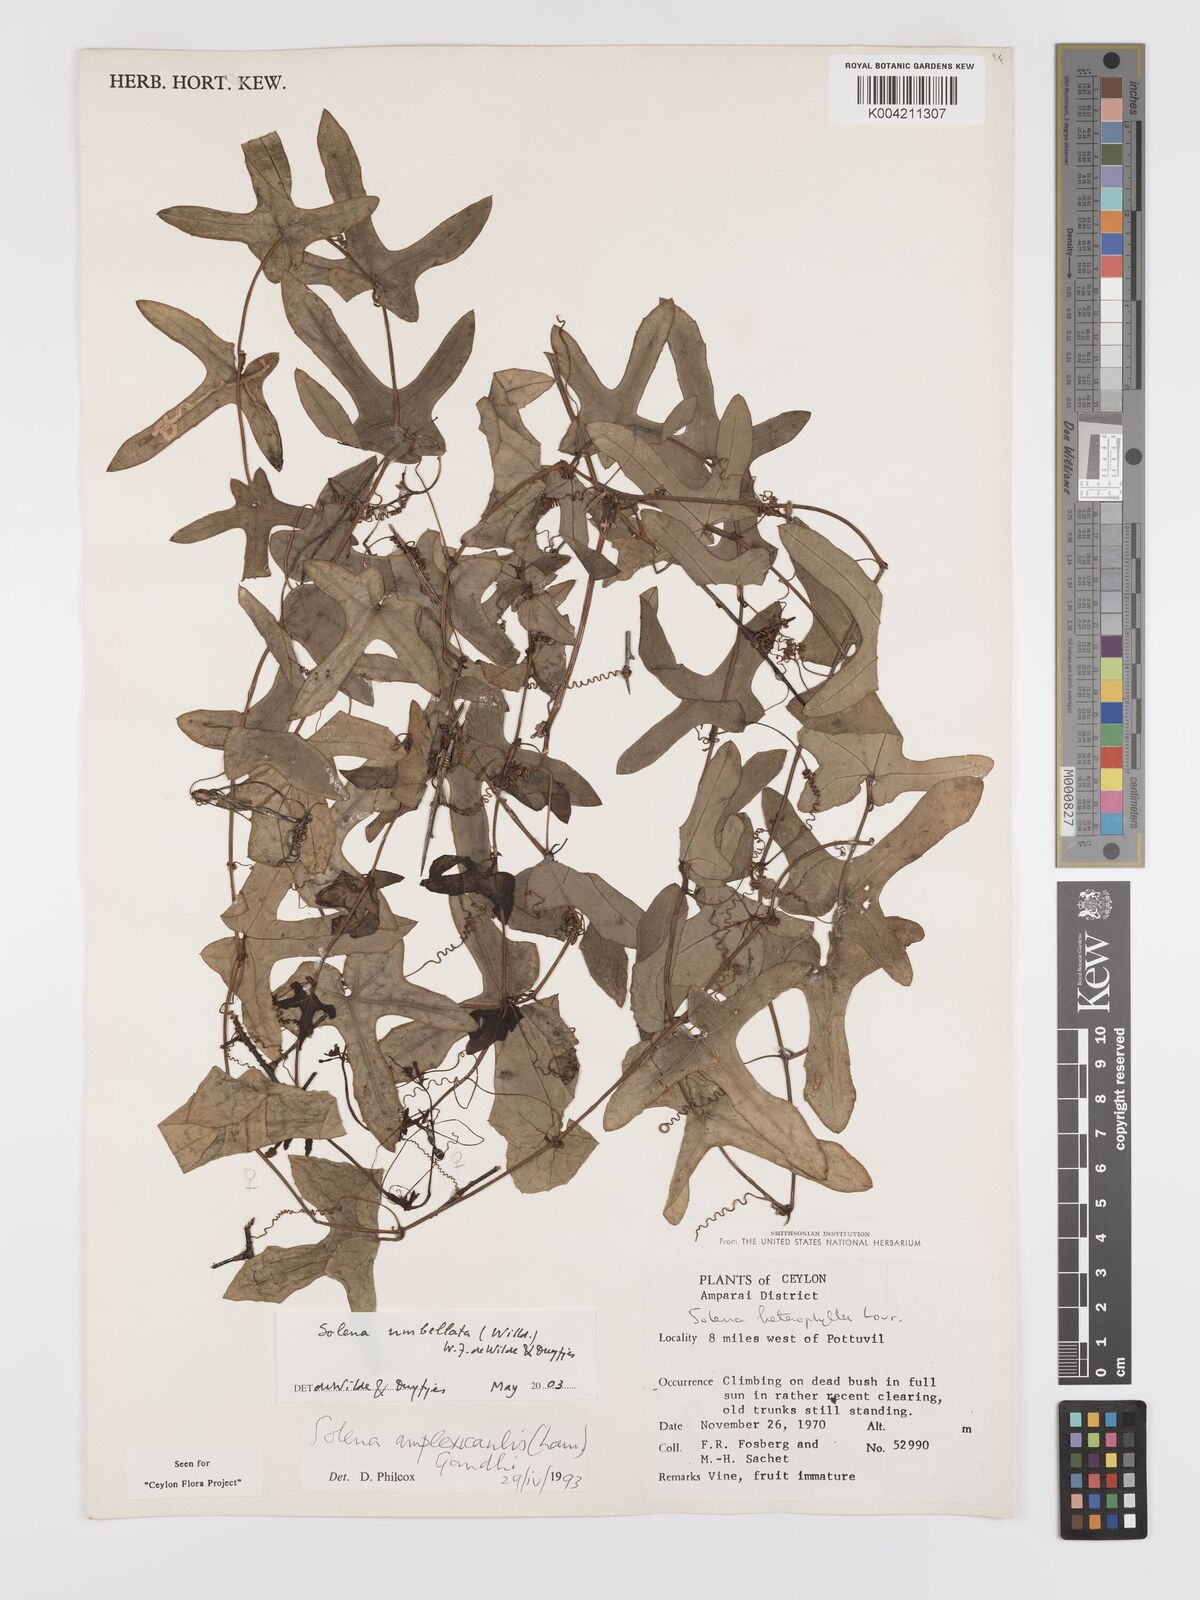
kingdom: Plantae
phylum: Tracheophyta
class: Magnoliopsida
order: Cucurbitales
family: Cucurbitaceae
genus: Solena
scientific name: Solena umbellata
